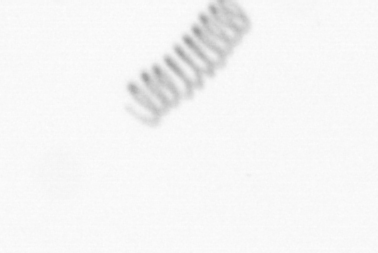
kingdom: Chromista
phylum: Ochrophyta
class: Bacillariophyceae
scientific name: Bacillariophyceae
